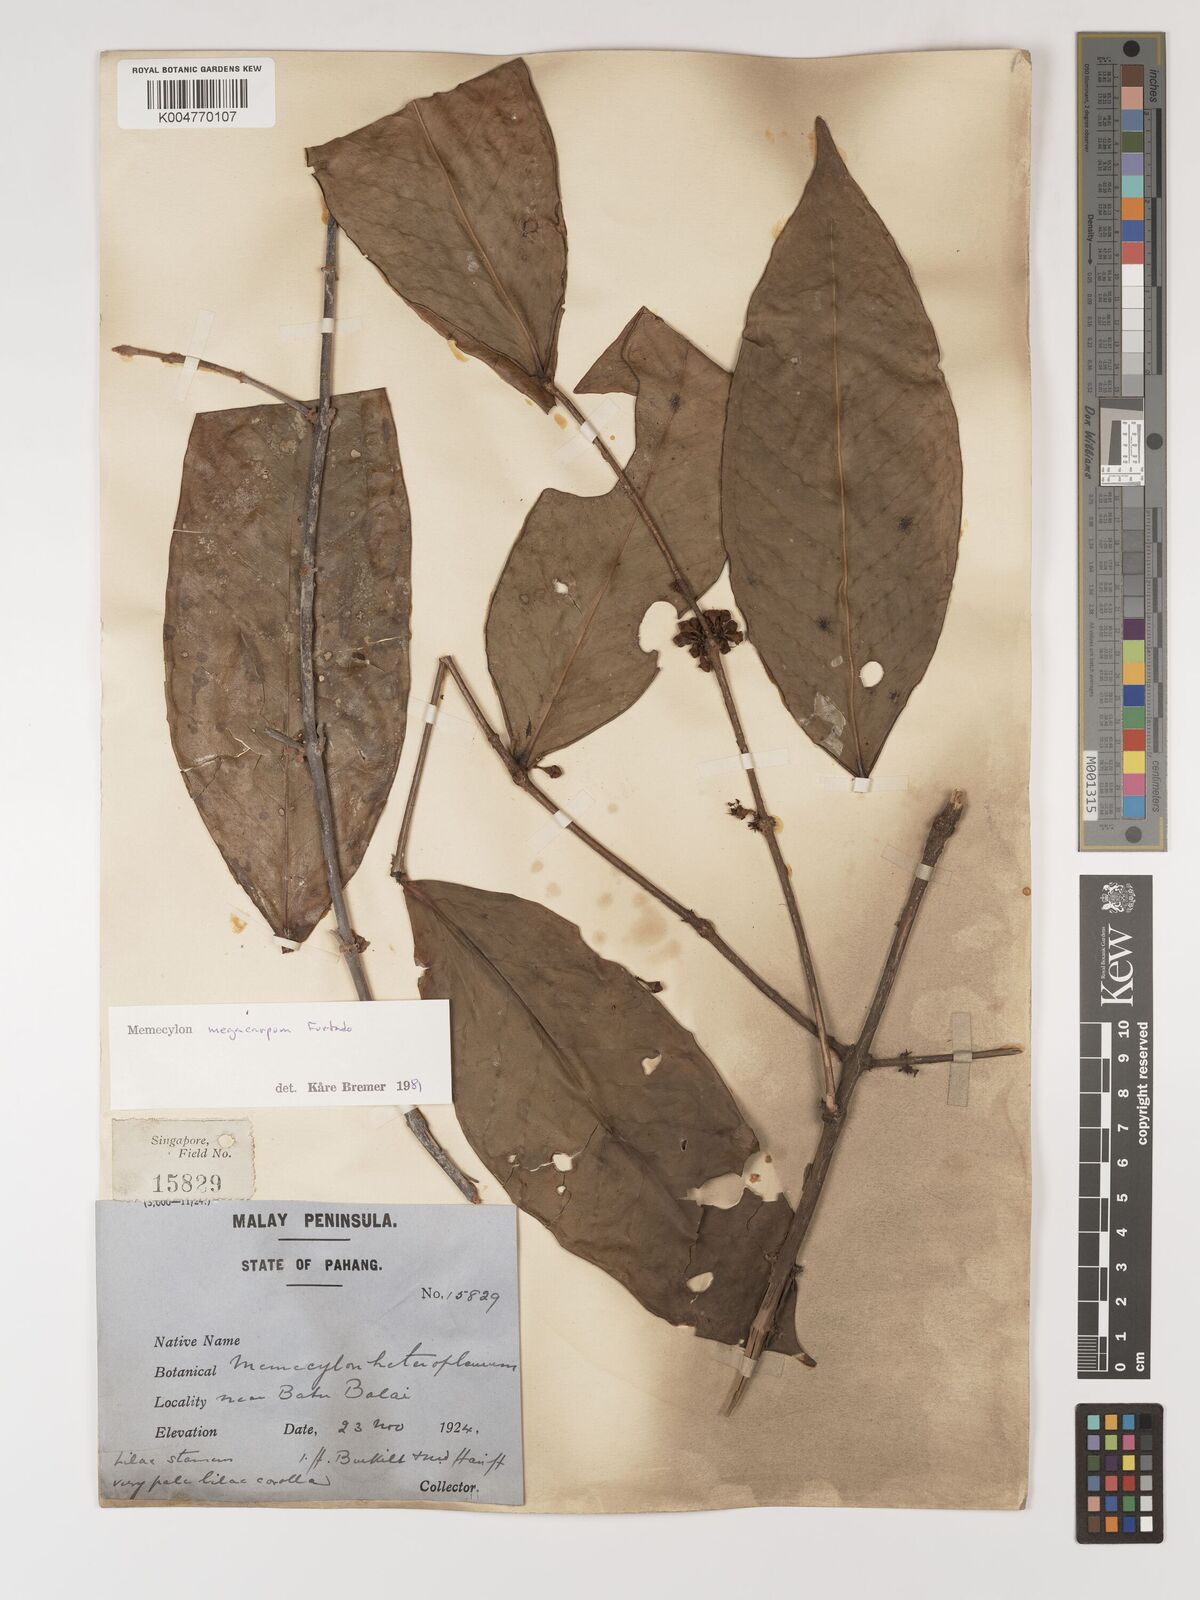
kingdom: Plantae
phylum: Tracheophyta
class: Magnoliopsida
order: Myrtales
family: Melastomataceae
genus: Memecylon
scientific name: Memecylon megacarpum
